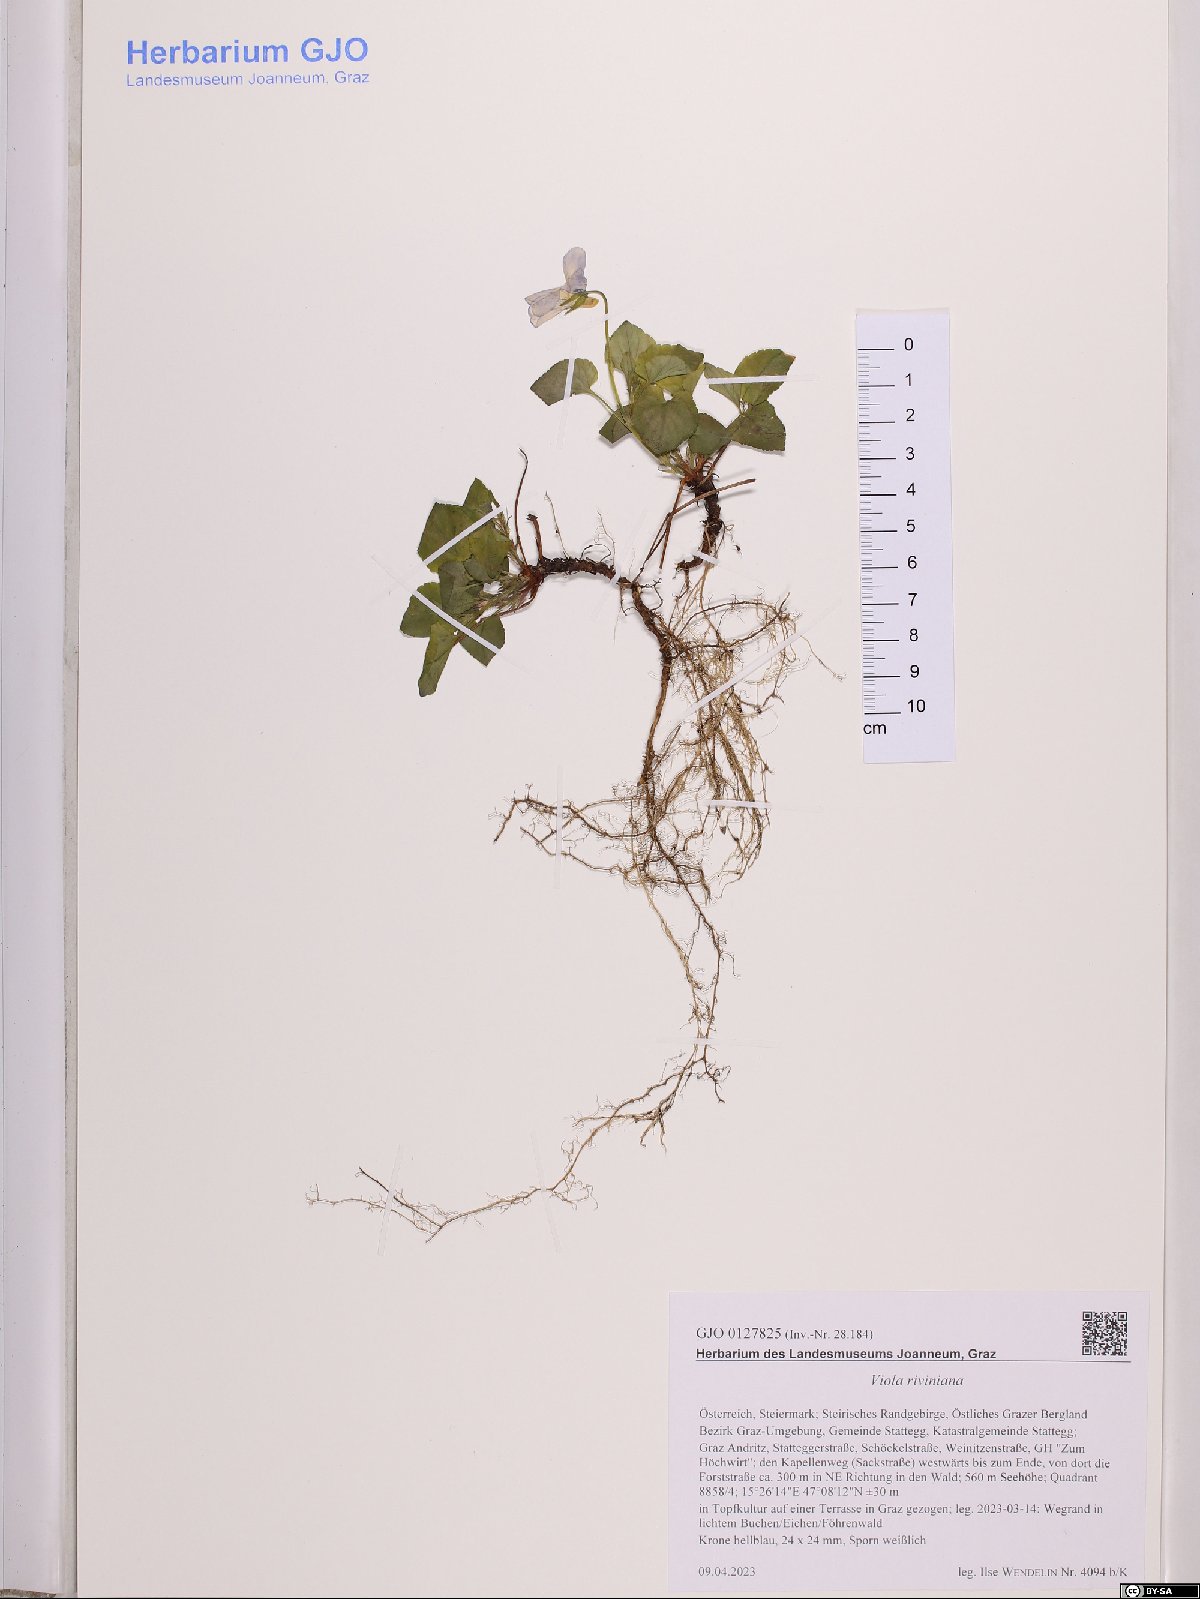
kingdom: Plantae
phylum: Tracheophyta
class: Magnoliopsida
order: Malpighiales
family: Violaceae
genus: Viola
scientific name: Viola riviniana
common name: Common dog-violet
